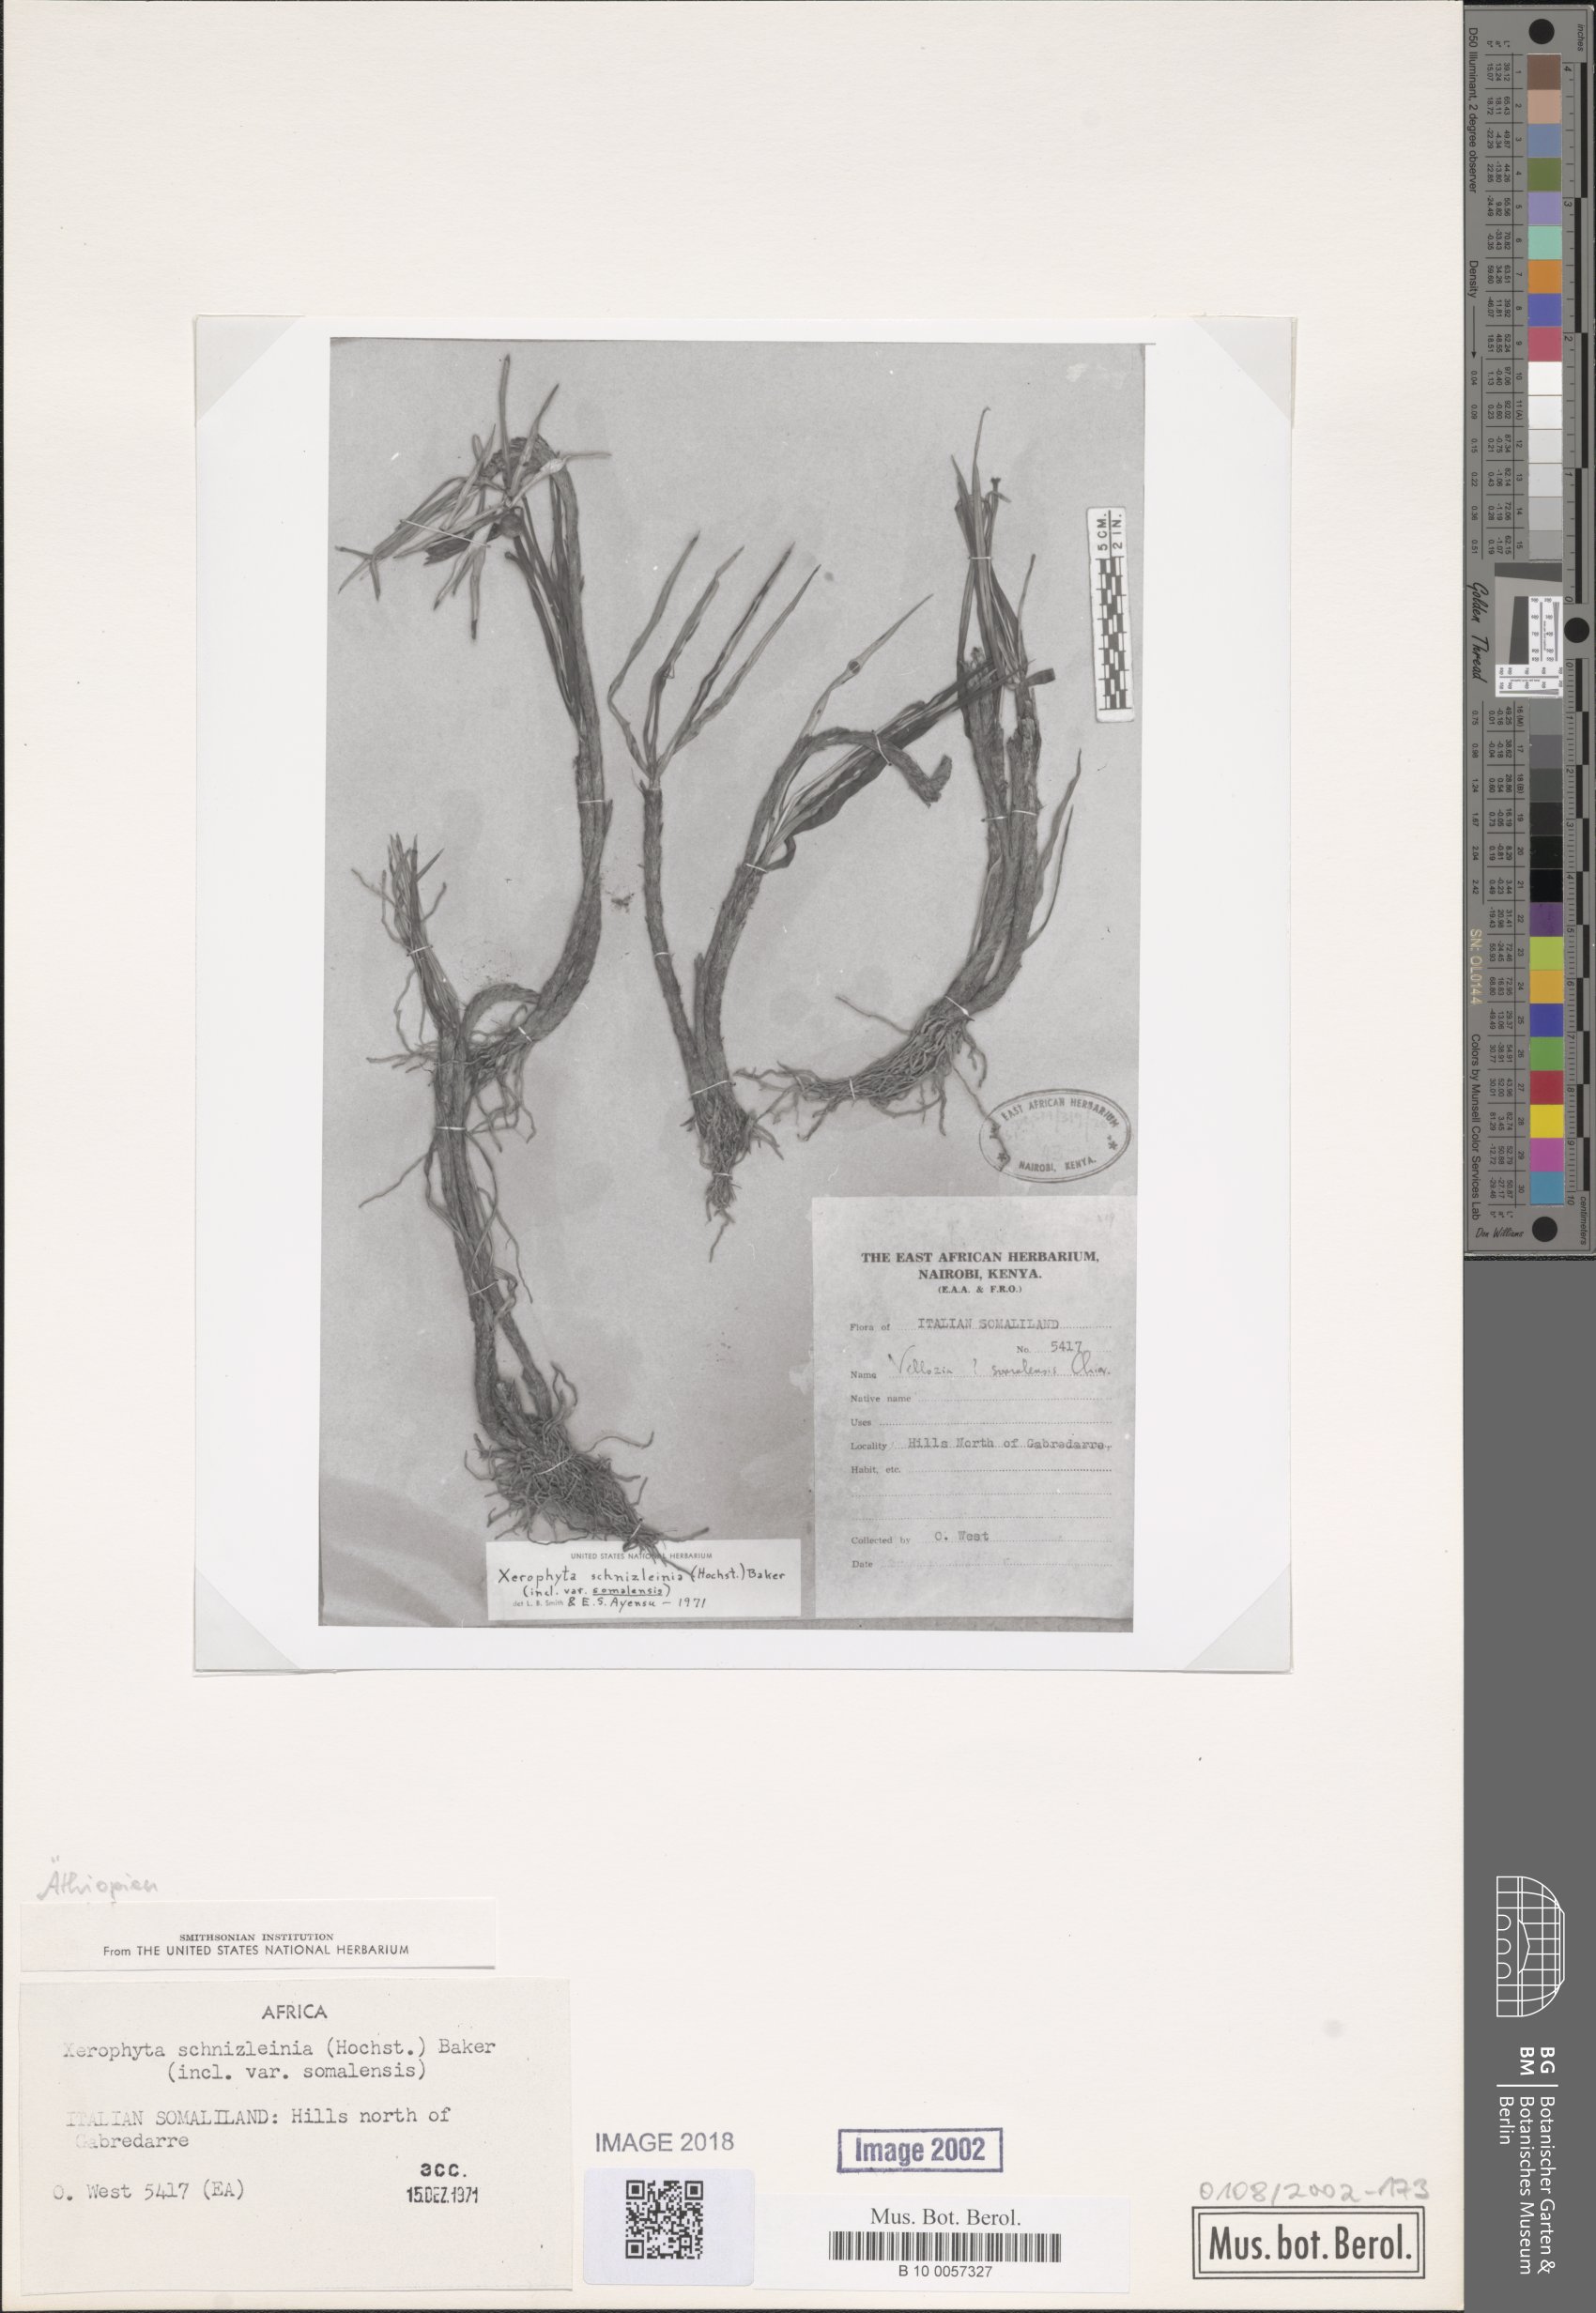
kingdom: Plantae
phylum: Tracheophyta
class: Liliopsida
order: Pandanales
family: Velloziaceae
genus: Xerophyta
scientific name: Xerophyta schnizleinia
